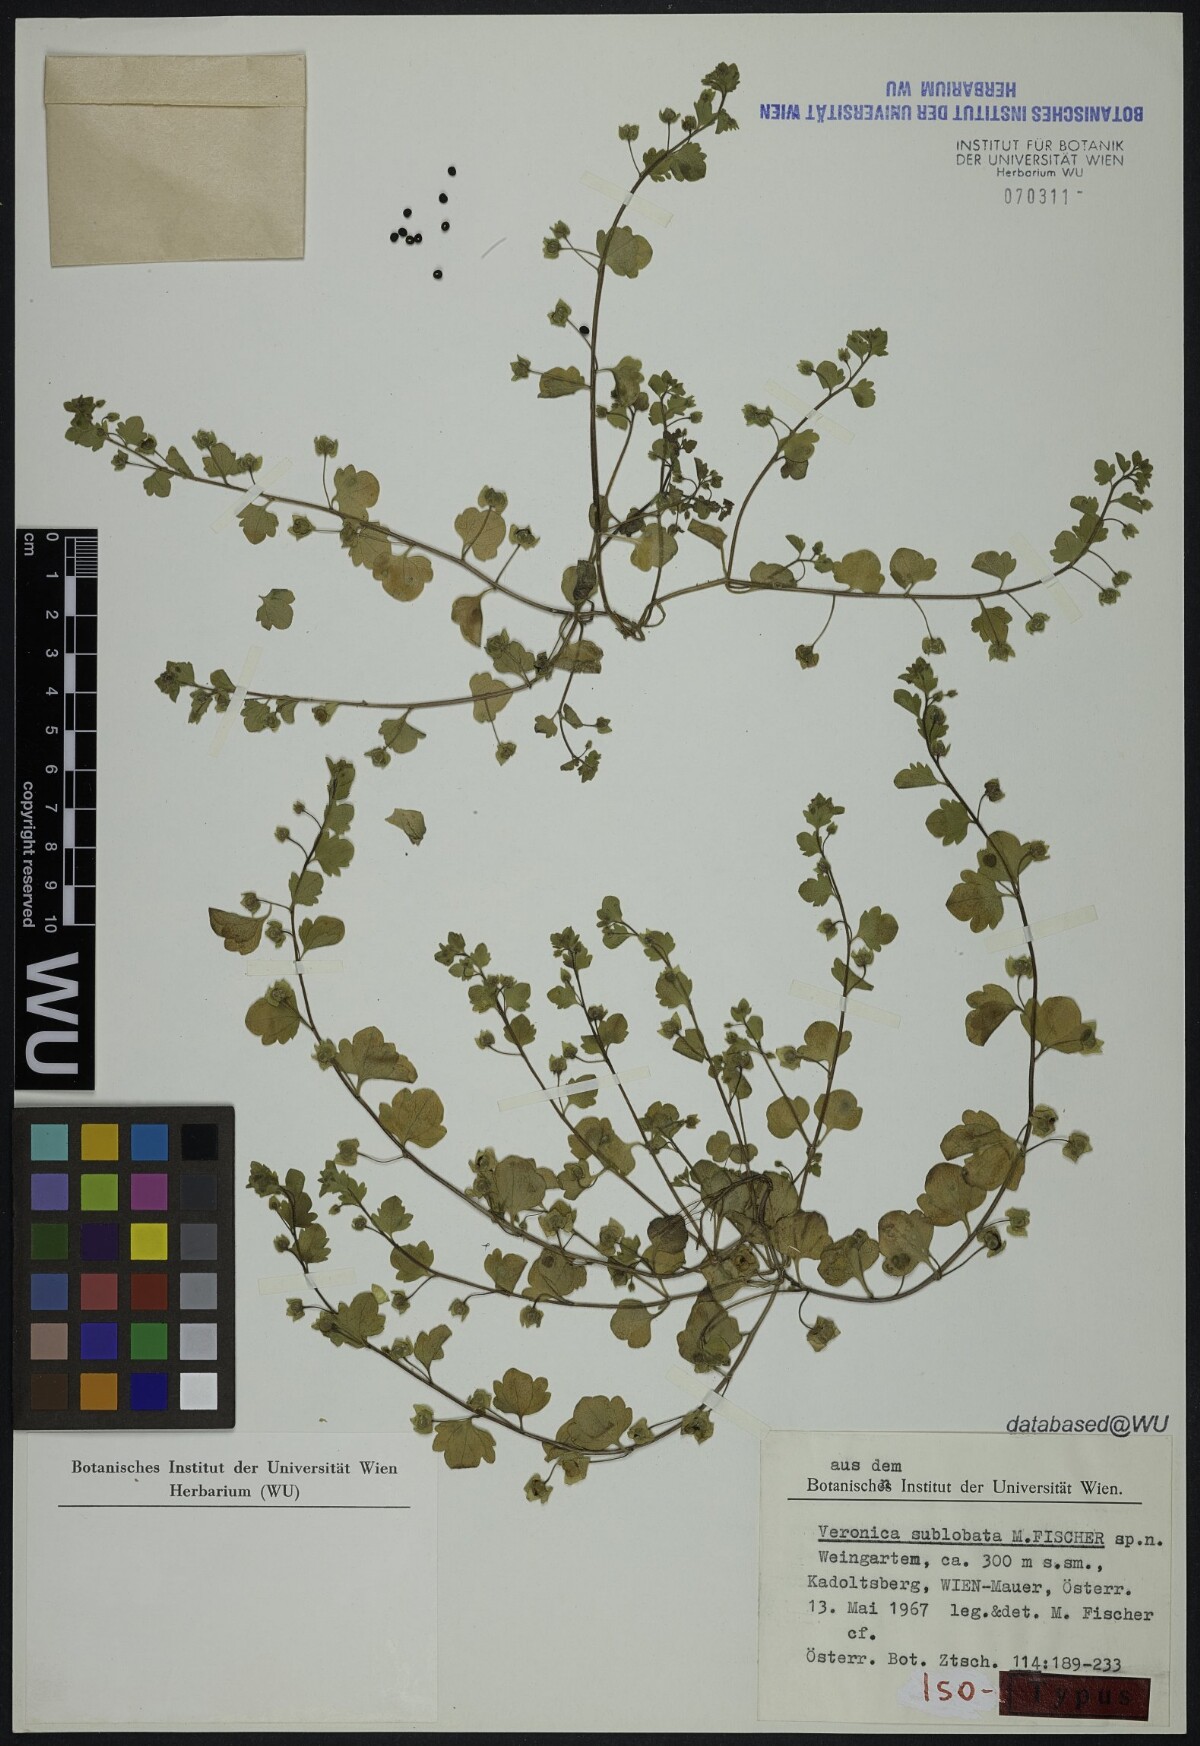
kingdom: Plantae
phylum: Tracheophyta
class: Magnoliopsida
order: Lamiales
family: Plantaginaceae
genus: Veronica
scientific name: Veronica sublobata
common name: False ivy-leaved speedwell
